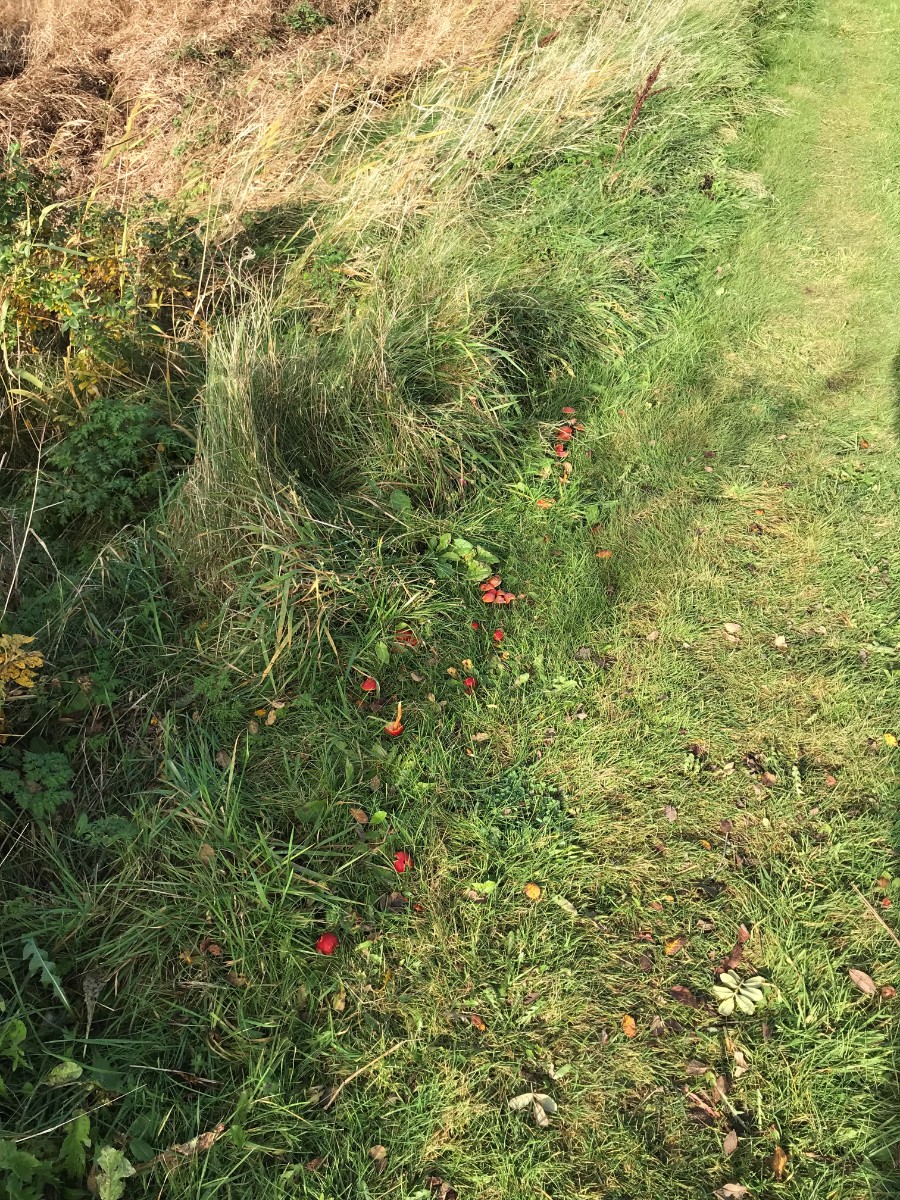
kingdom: Fungi
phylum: Basidiomycota
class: Agaricomycetes
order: Agaricales
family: Hygrophoraceae
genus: Hygrocybe
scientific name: Hygrocybe coccinea
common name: cinnober-vokshat
